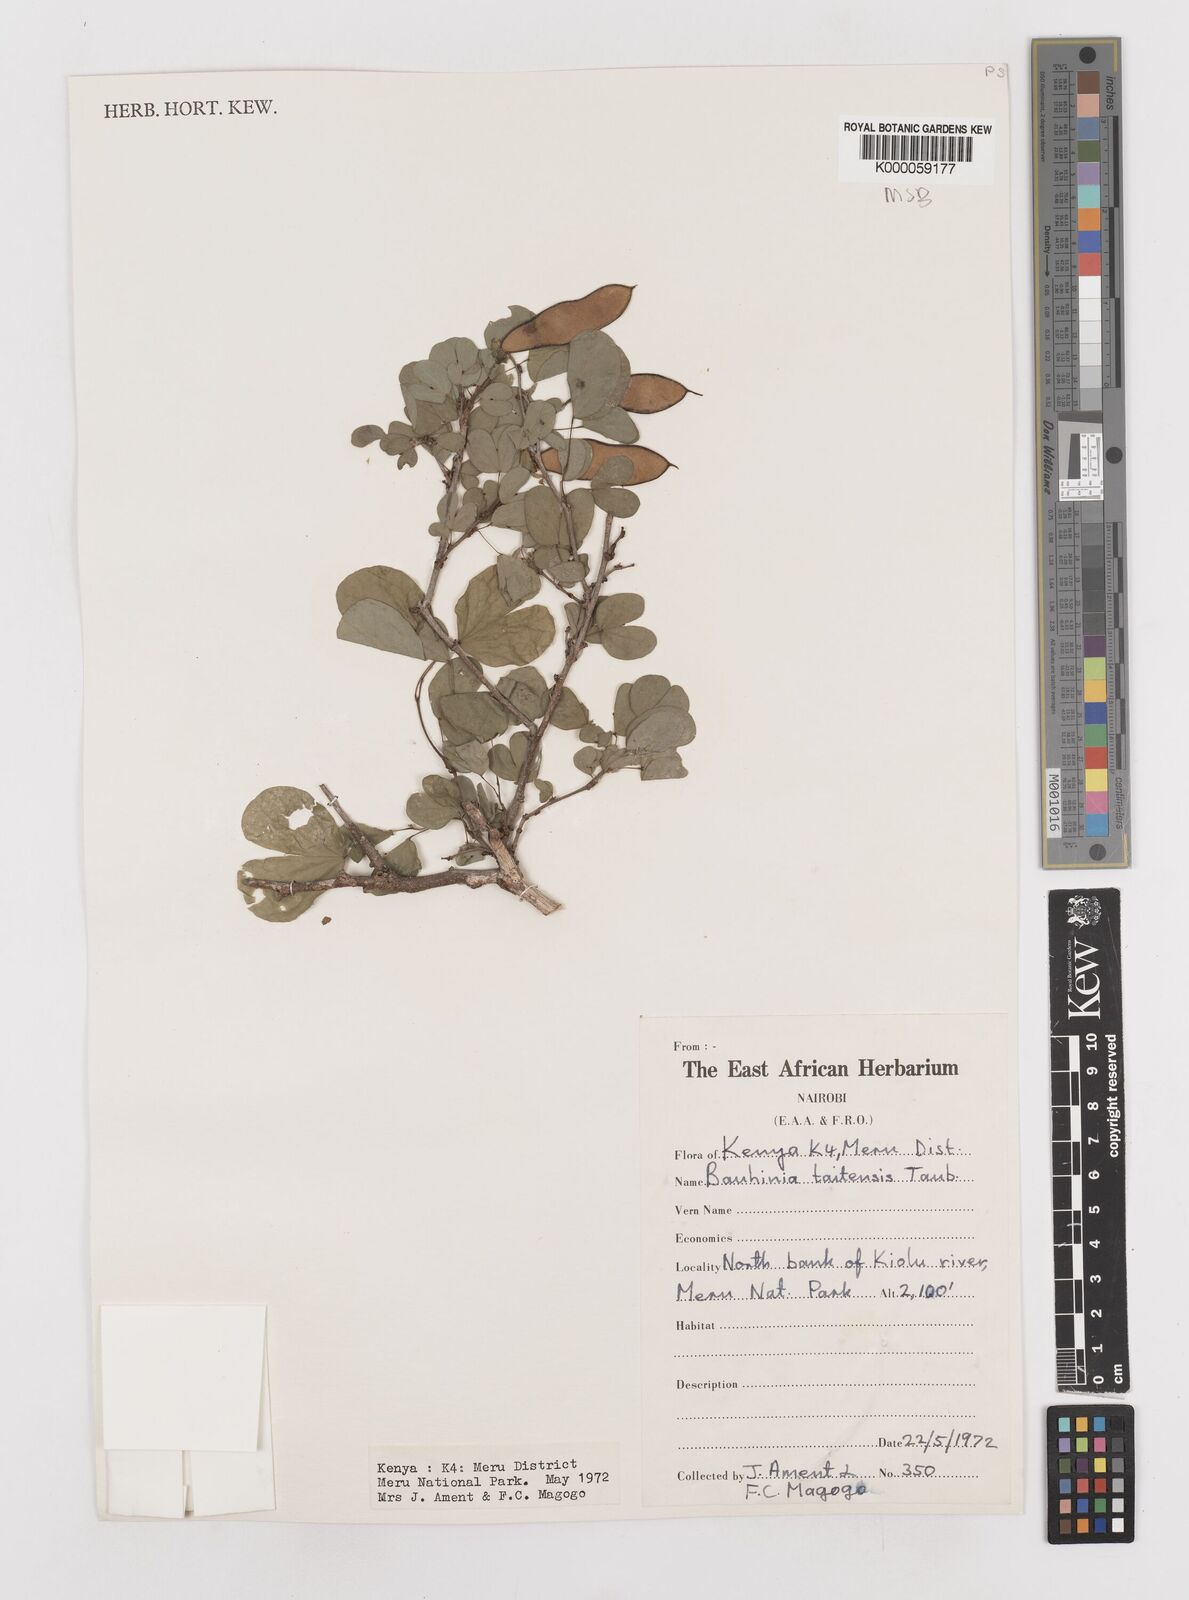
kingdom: Plantae
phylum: Tracheophyta
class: Magnoliopsida
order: Fabales
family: Fabaceae
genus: Bauhinia
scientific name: Bauhinia taitensis
